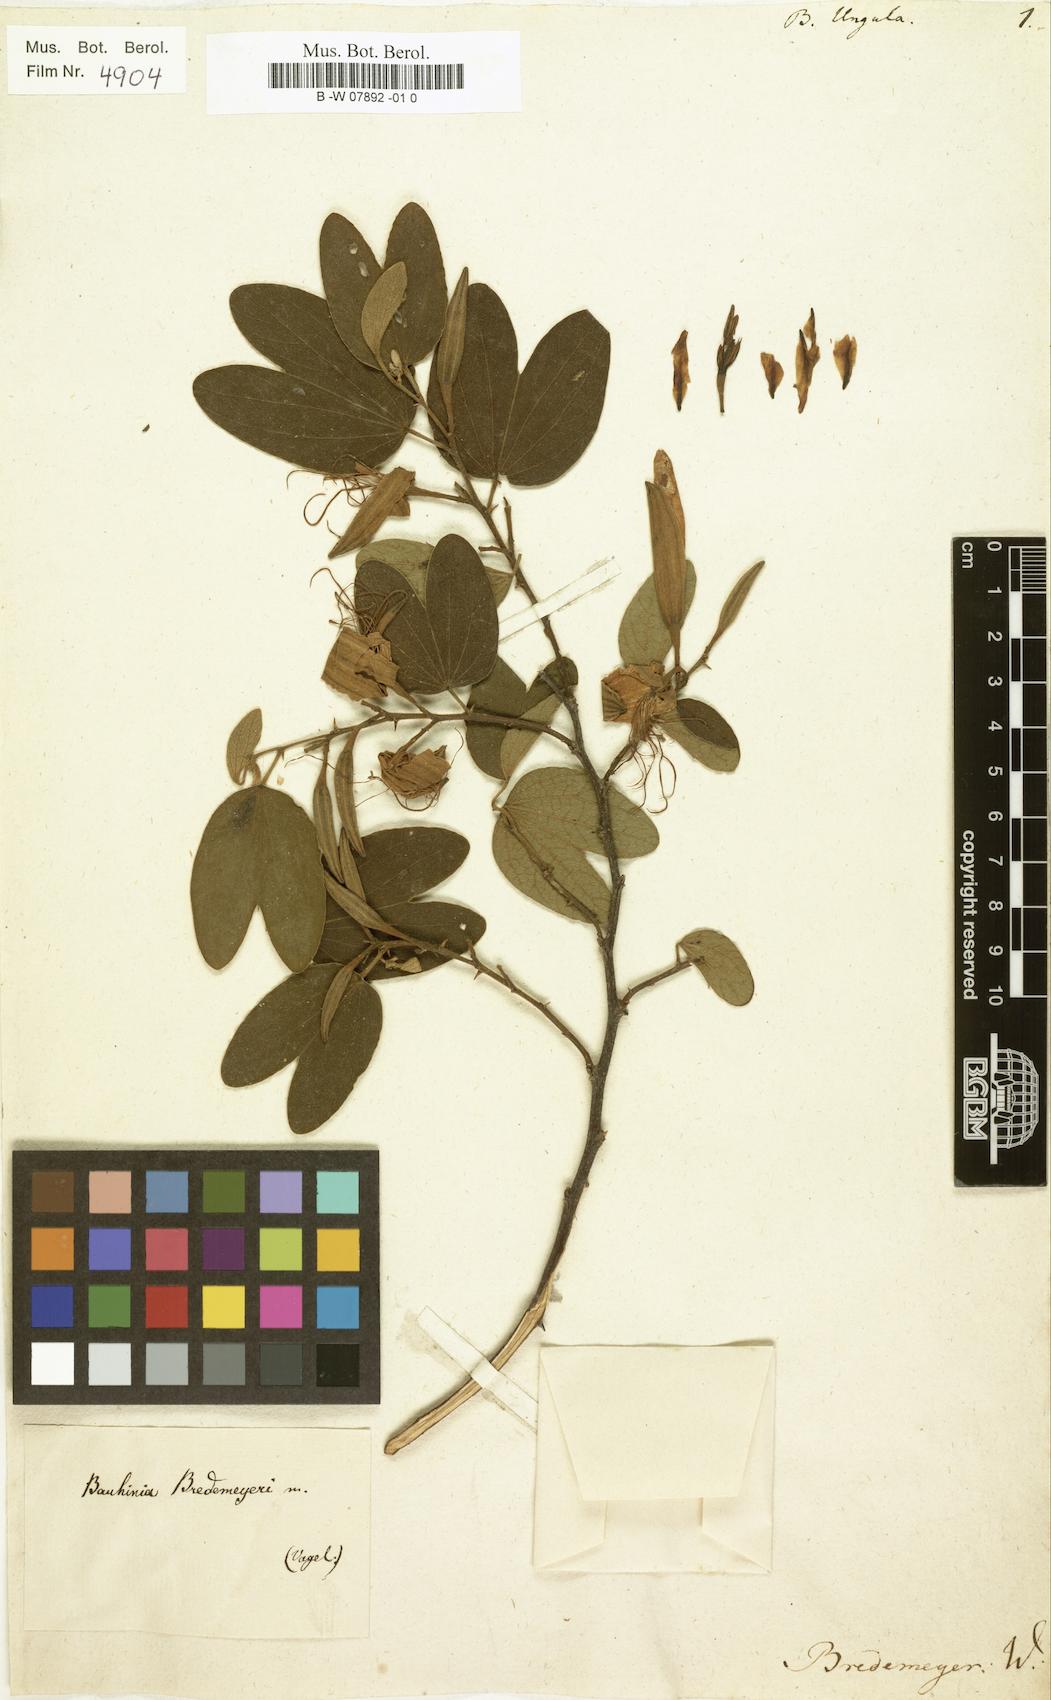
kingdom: Plantae
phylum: Tracheophyta
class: Magnoliopsida
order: Fabales
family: Fabaceae
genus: Bauhinia
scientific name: Bauhinia aculeata
